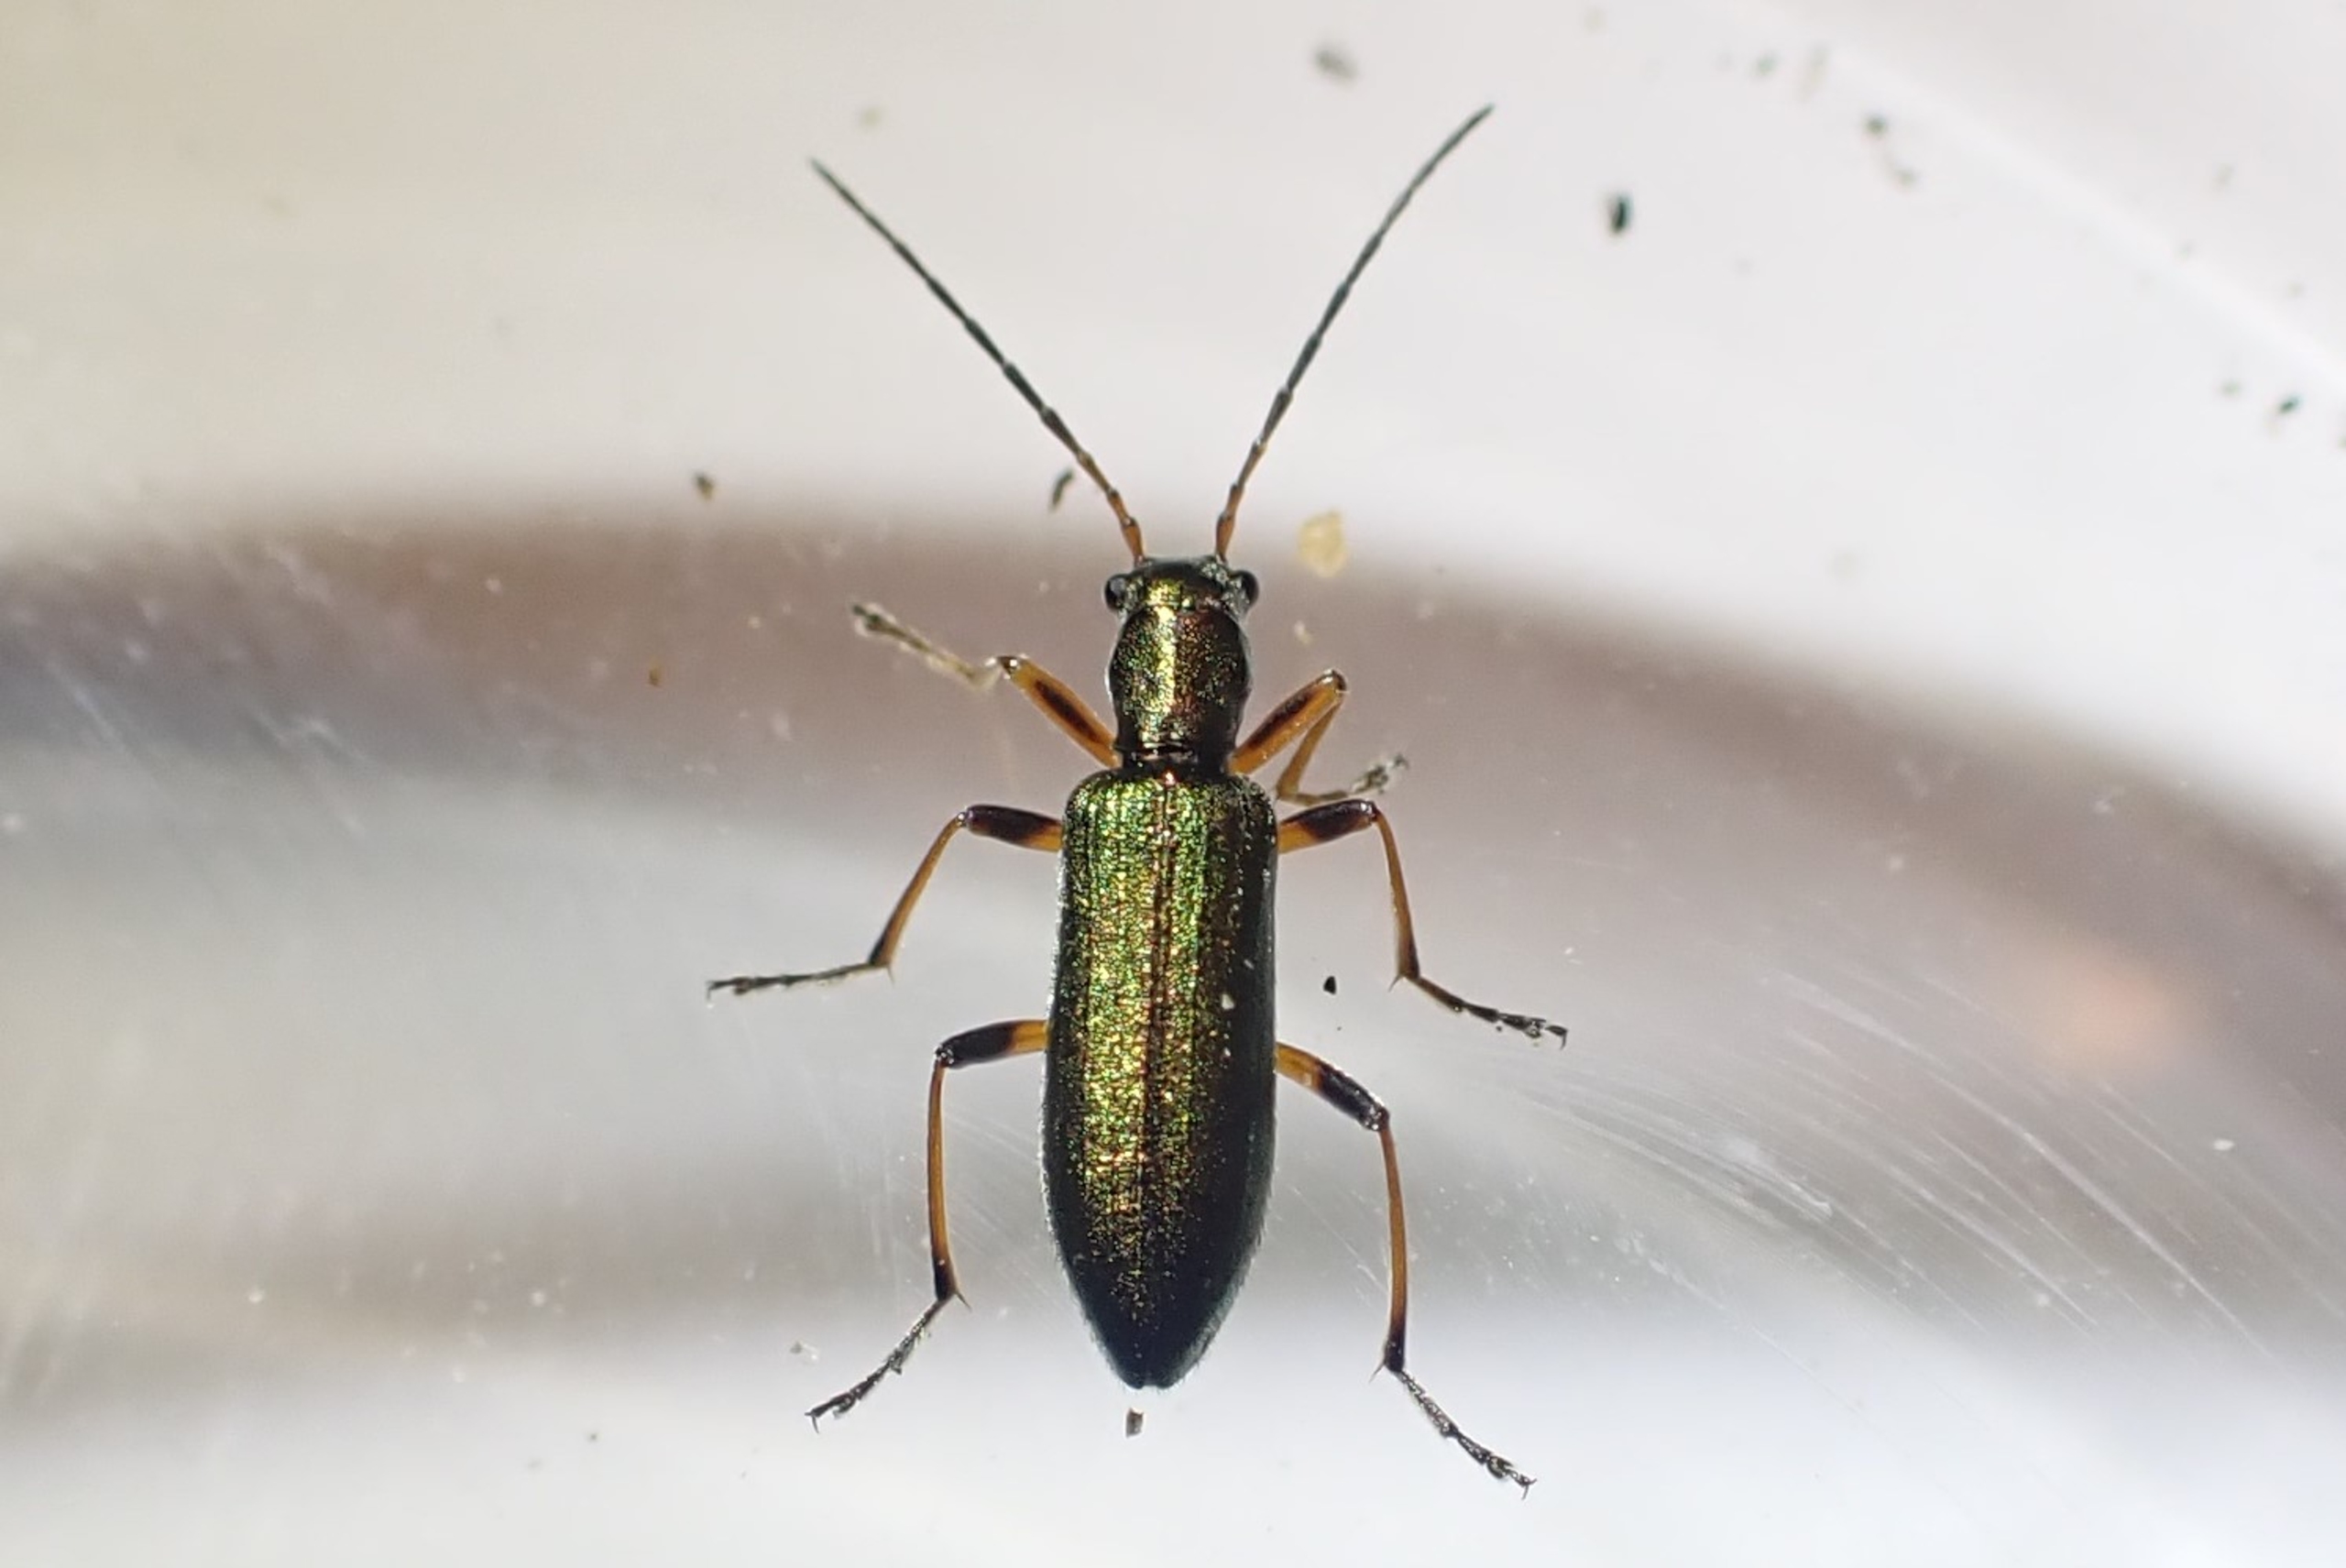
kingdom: Animalia
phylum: Arthropoda
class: Insecta
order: Coleoptera
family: Oedemeridae
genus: Chrysanthia
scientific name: Chrysanthia geniculata
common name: Grøn solbille
